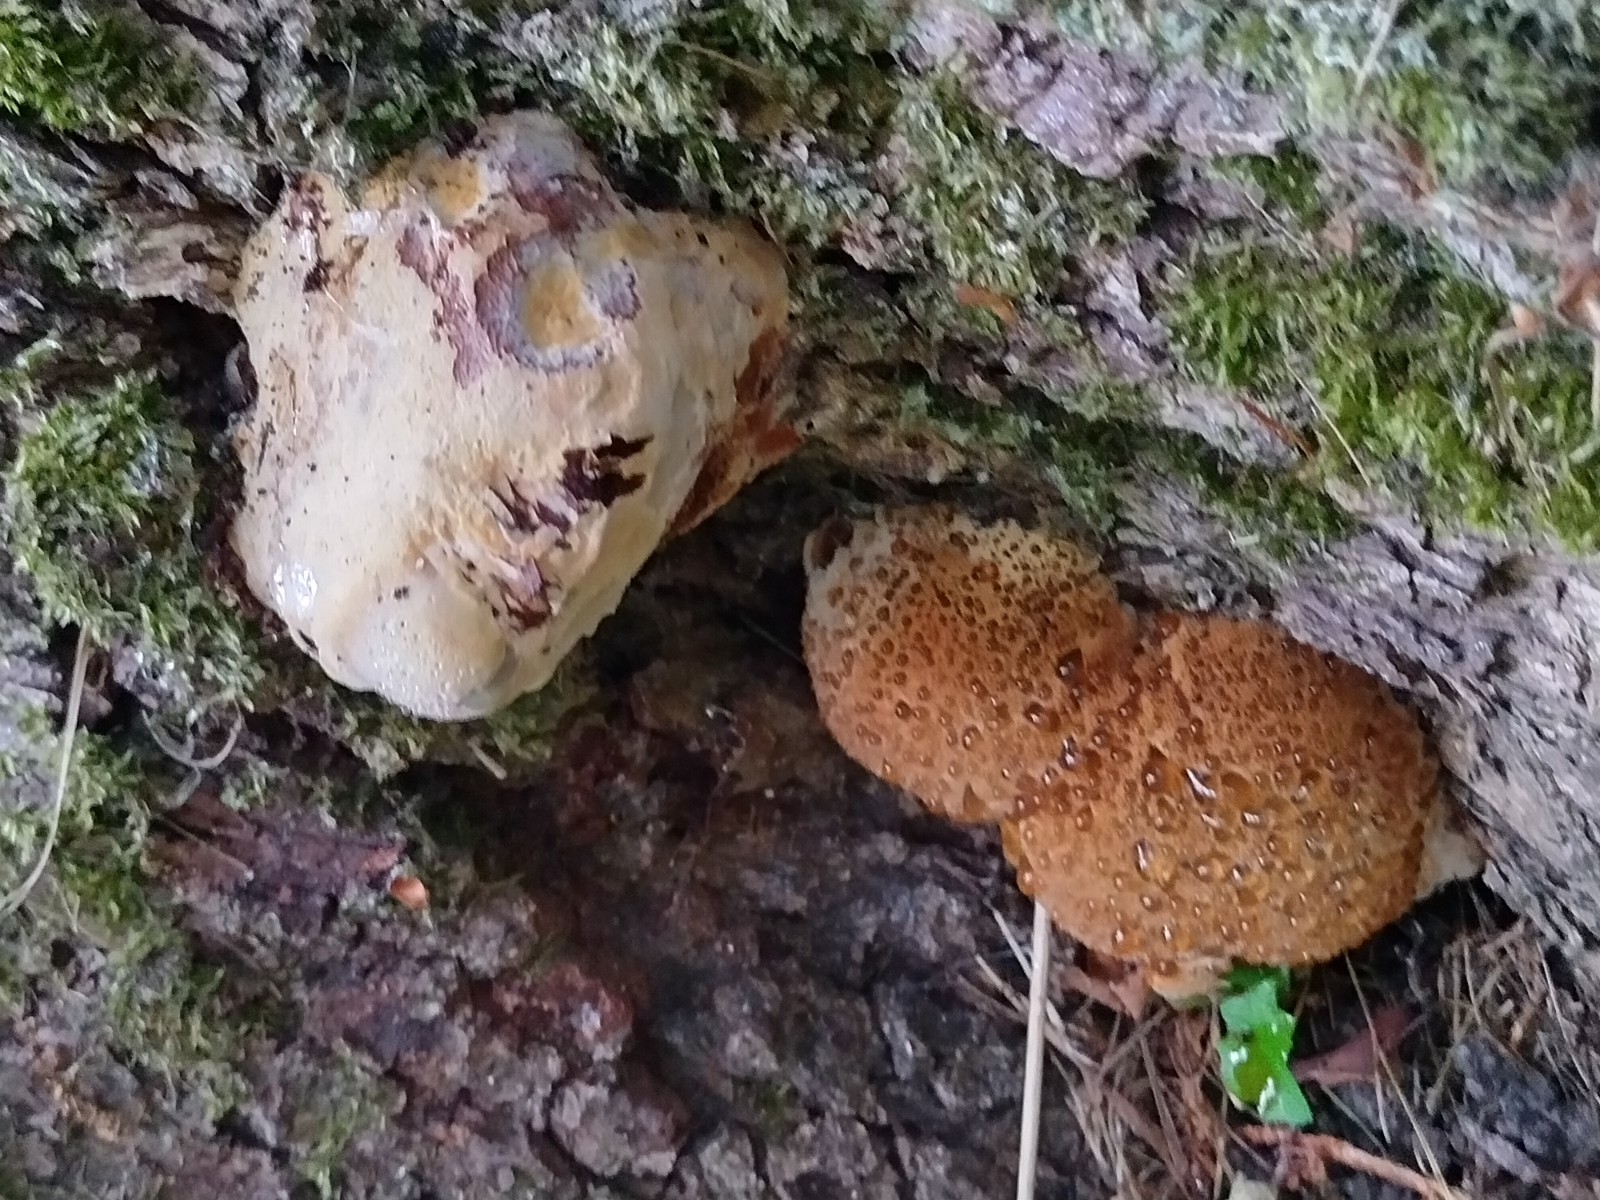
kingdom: Fungi
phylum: Basidiomycota
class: Agaricomycetes
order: Hymenochaetales
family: Hymenochaetaceae
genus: Pseudoinonotus
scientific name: Pseudoinonotus dryadeus
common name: ege-spejlporesvamp
